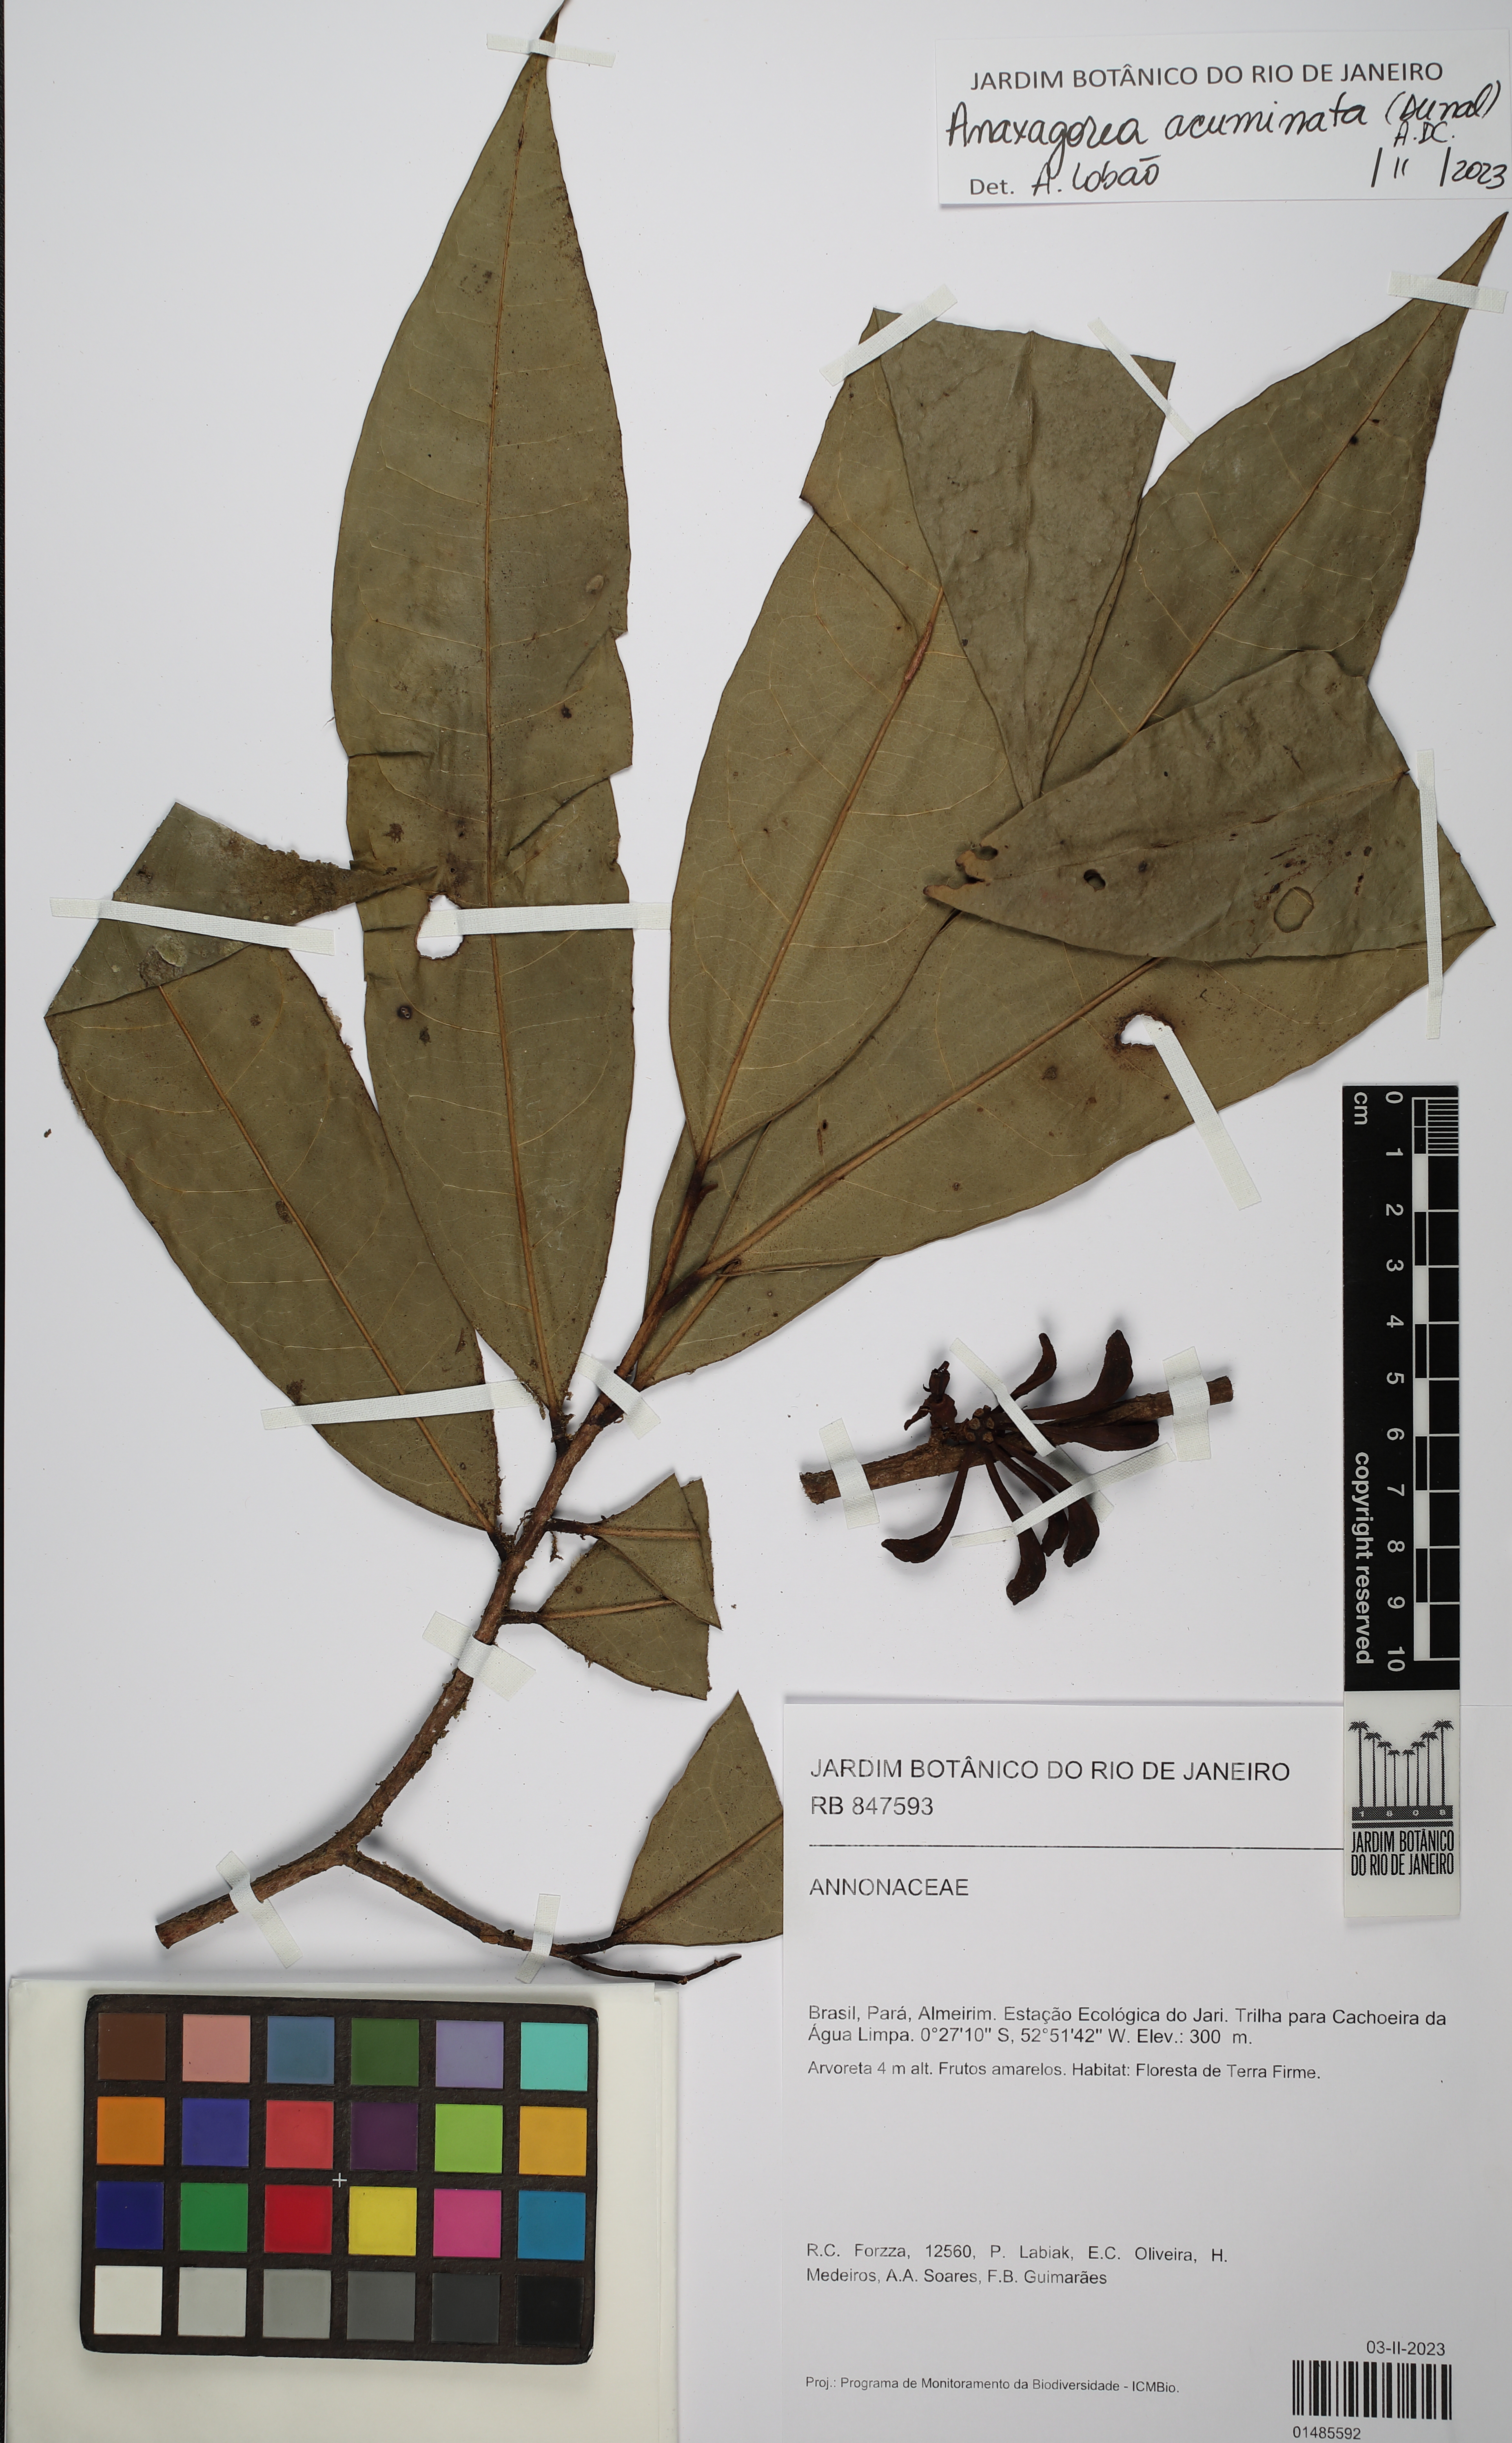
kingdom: Plantae
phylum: Tracheophyta
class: Magnoliopsida
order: Magnoliales
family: Annonaceae
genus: Anaxagorea
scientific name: Anaxagorea acuminata
